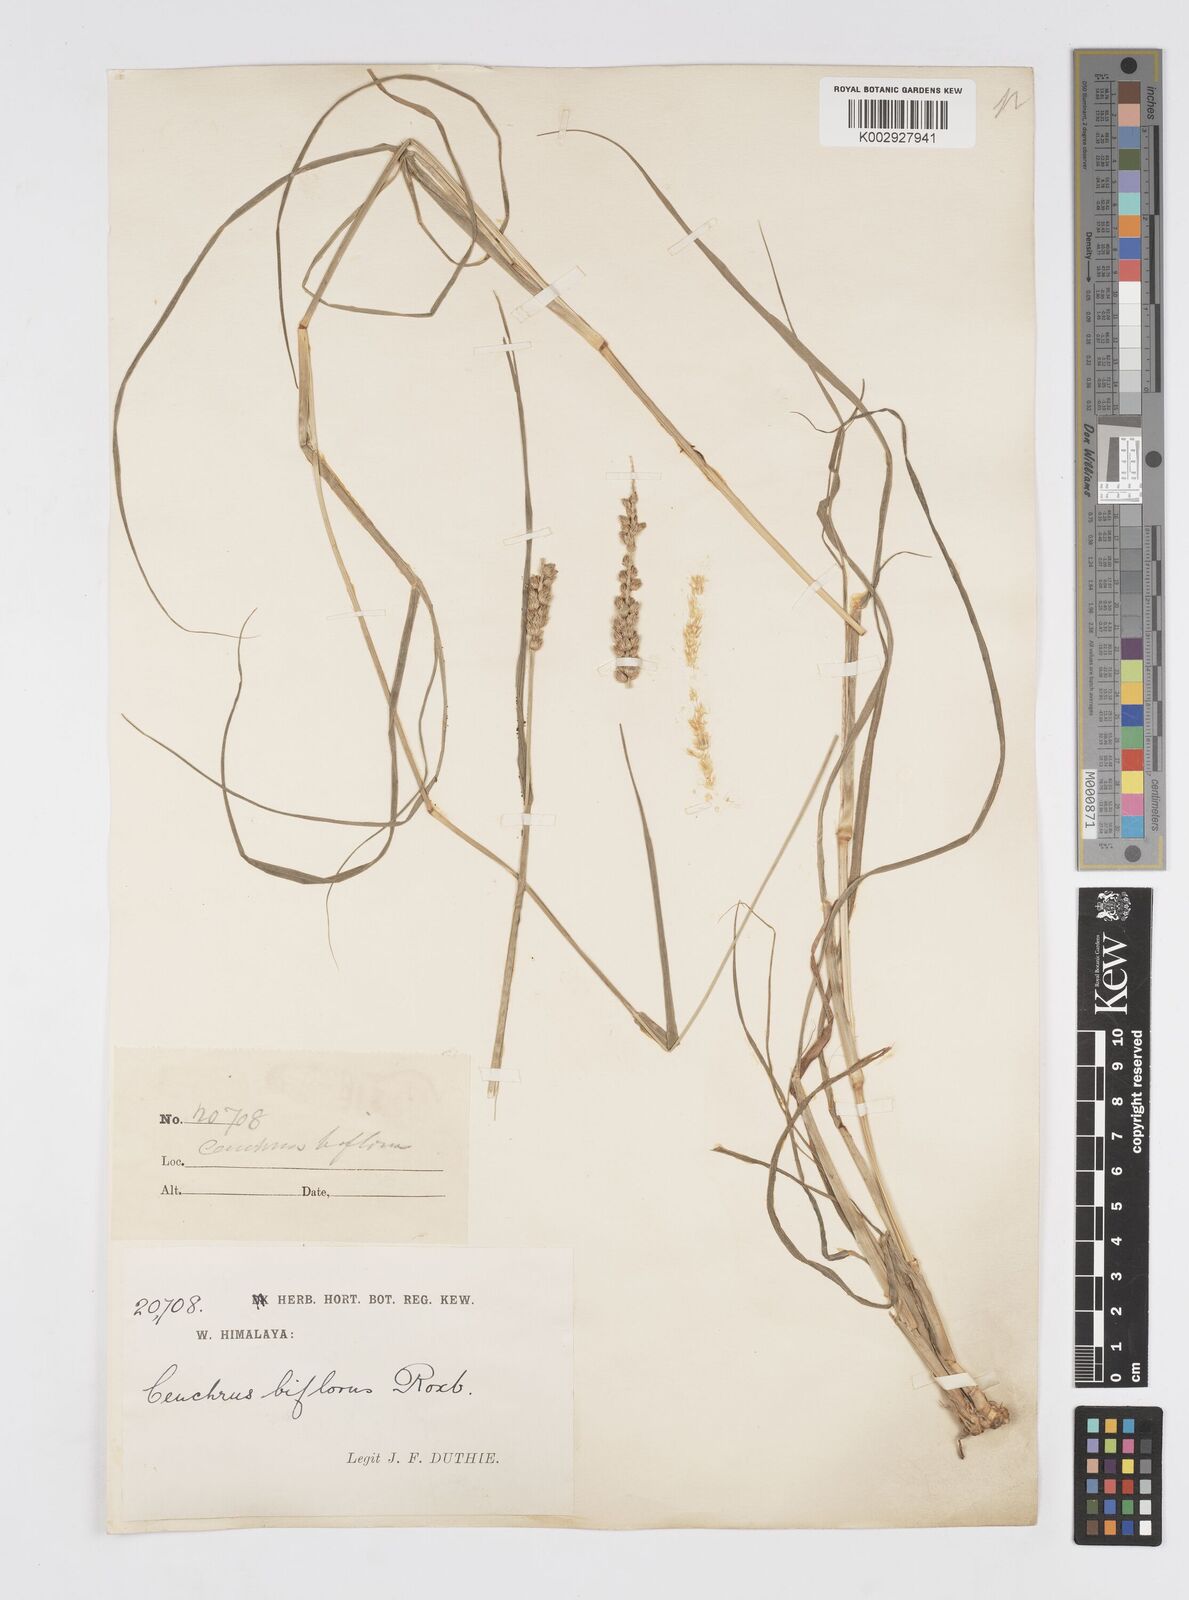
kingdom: Plantae
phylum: Tracheophyta
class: Liliopsida
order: Poales
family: Poaceae
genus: Cenchrus
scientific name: Cenchrus setigerus
